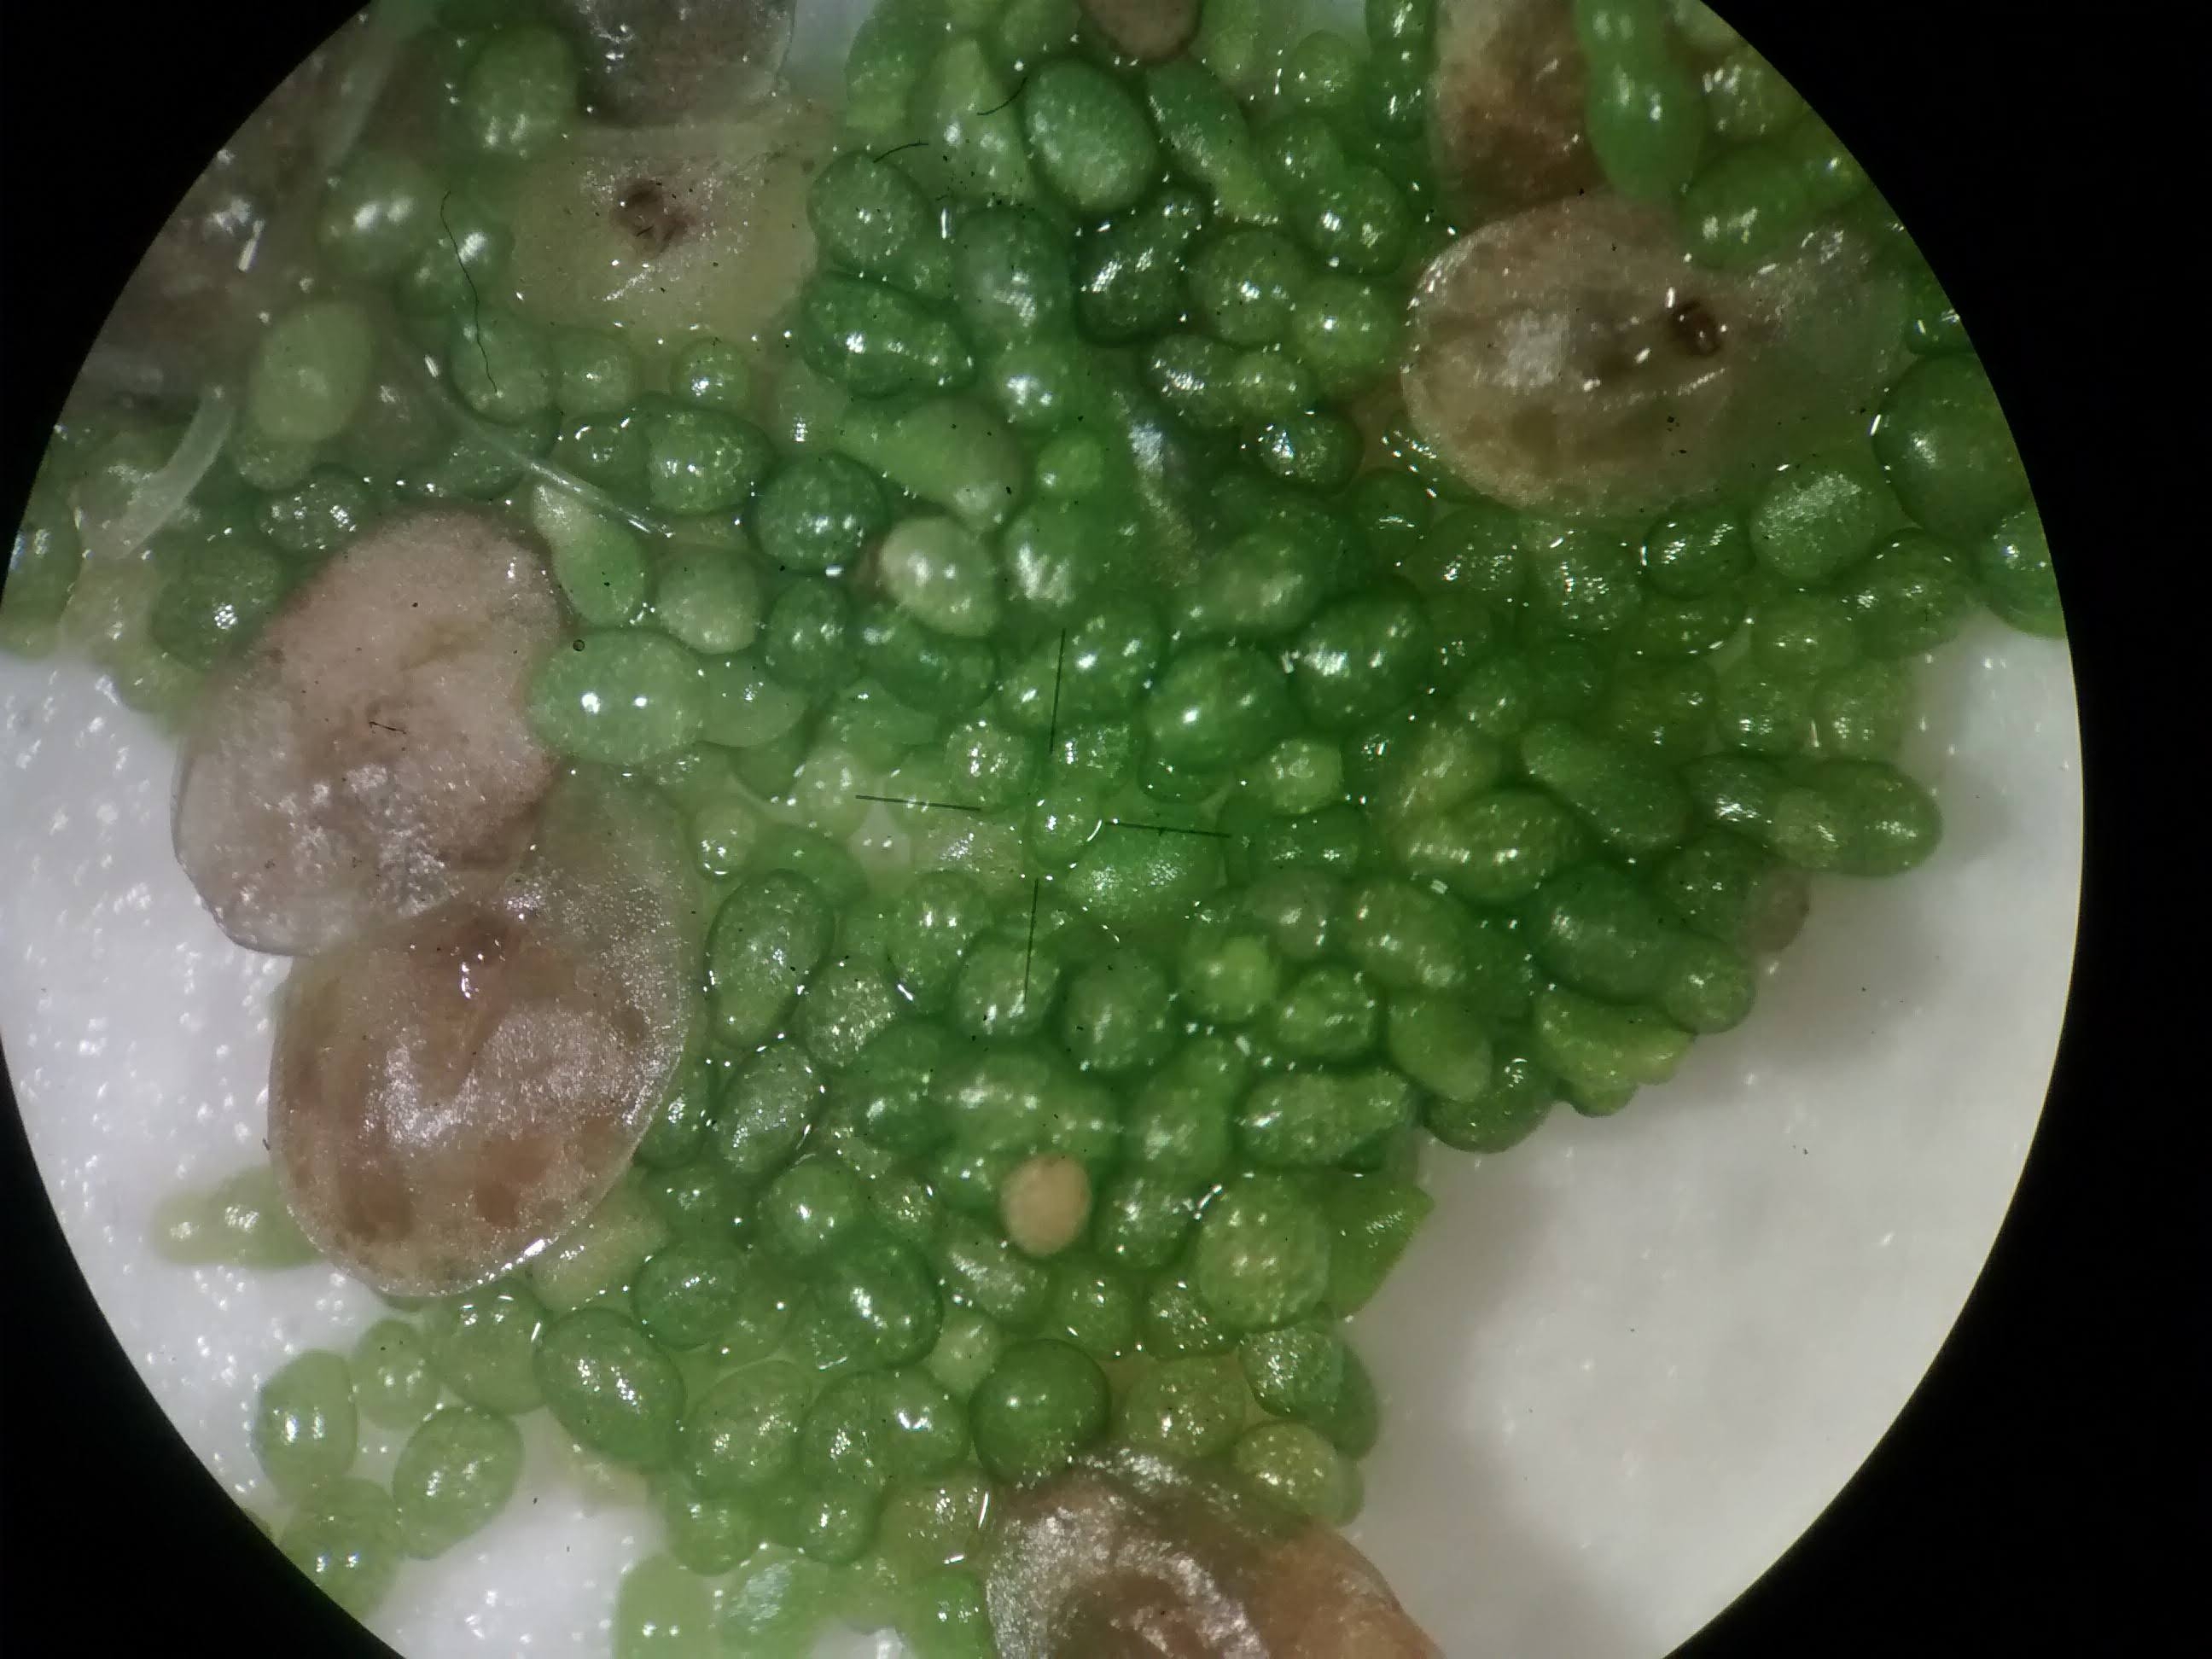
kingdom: Plantae
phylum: Tracheophyta
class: Liliopsida
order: Alismatales
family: Araceae
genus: Wolffia
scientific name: Wolffia columbiana
